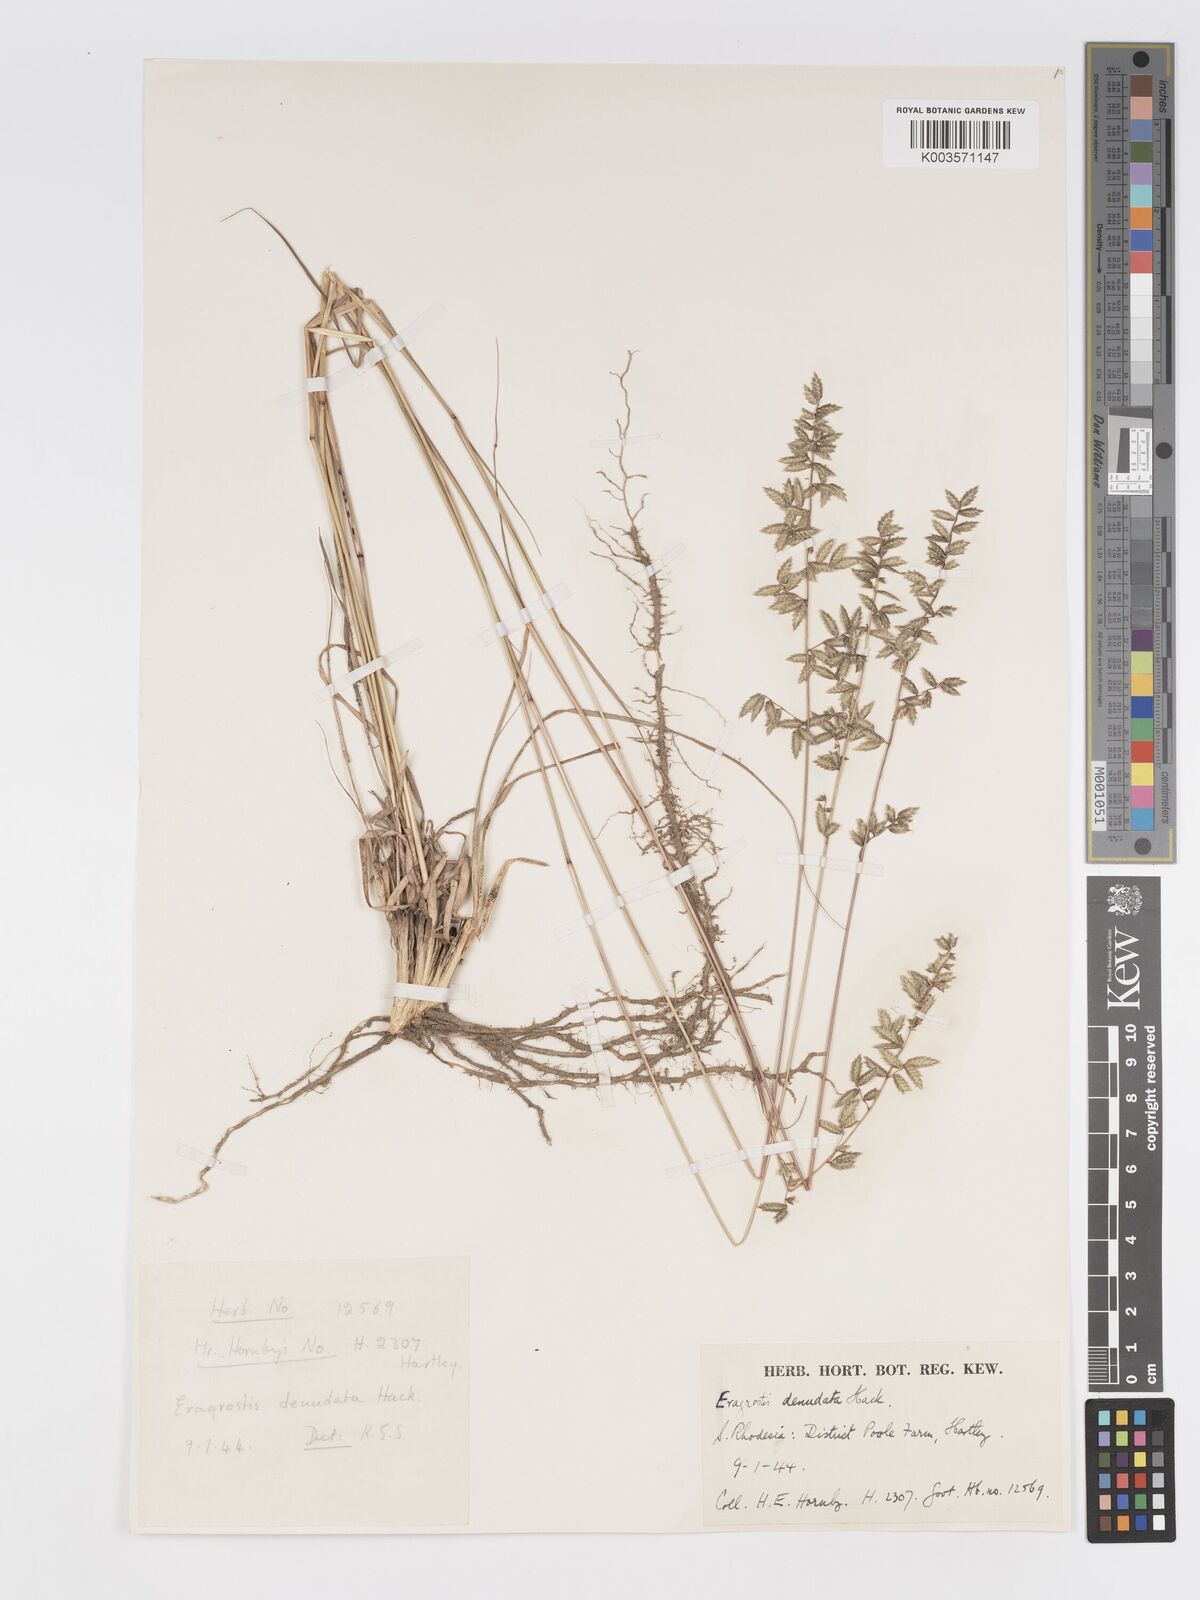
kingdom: Plantae
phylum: Tracheophyta
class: Liliopsida
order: Poales
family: Poaceae
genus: Eragrostis
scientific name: Eragrostis nindensis
